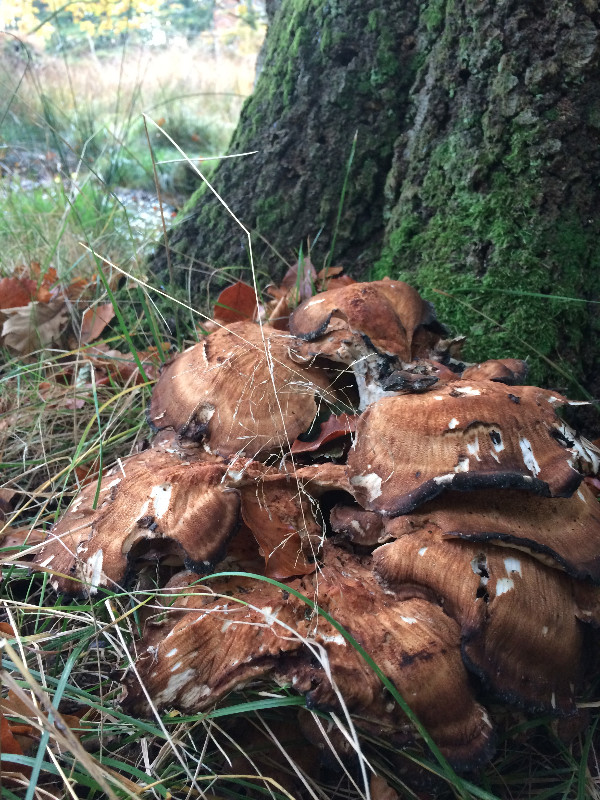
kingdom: Fungi
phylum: Basidiomycota
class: Agaricomycetes
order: Polyporales
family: Meripilaceae
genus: Meripilus
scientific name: Meripilus giganteus
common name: kæmpeporesvamp
